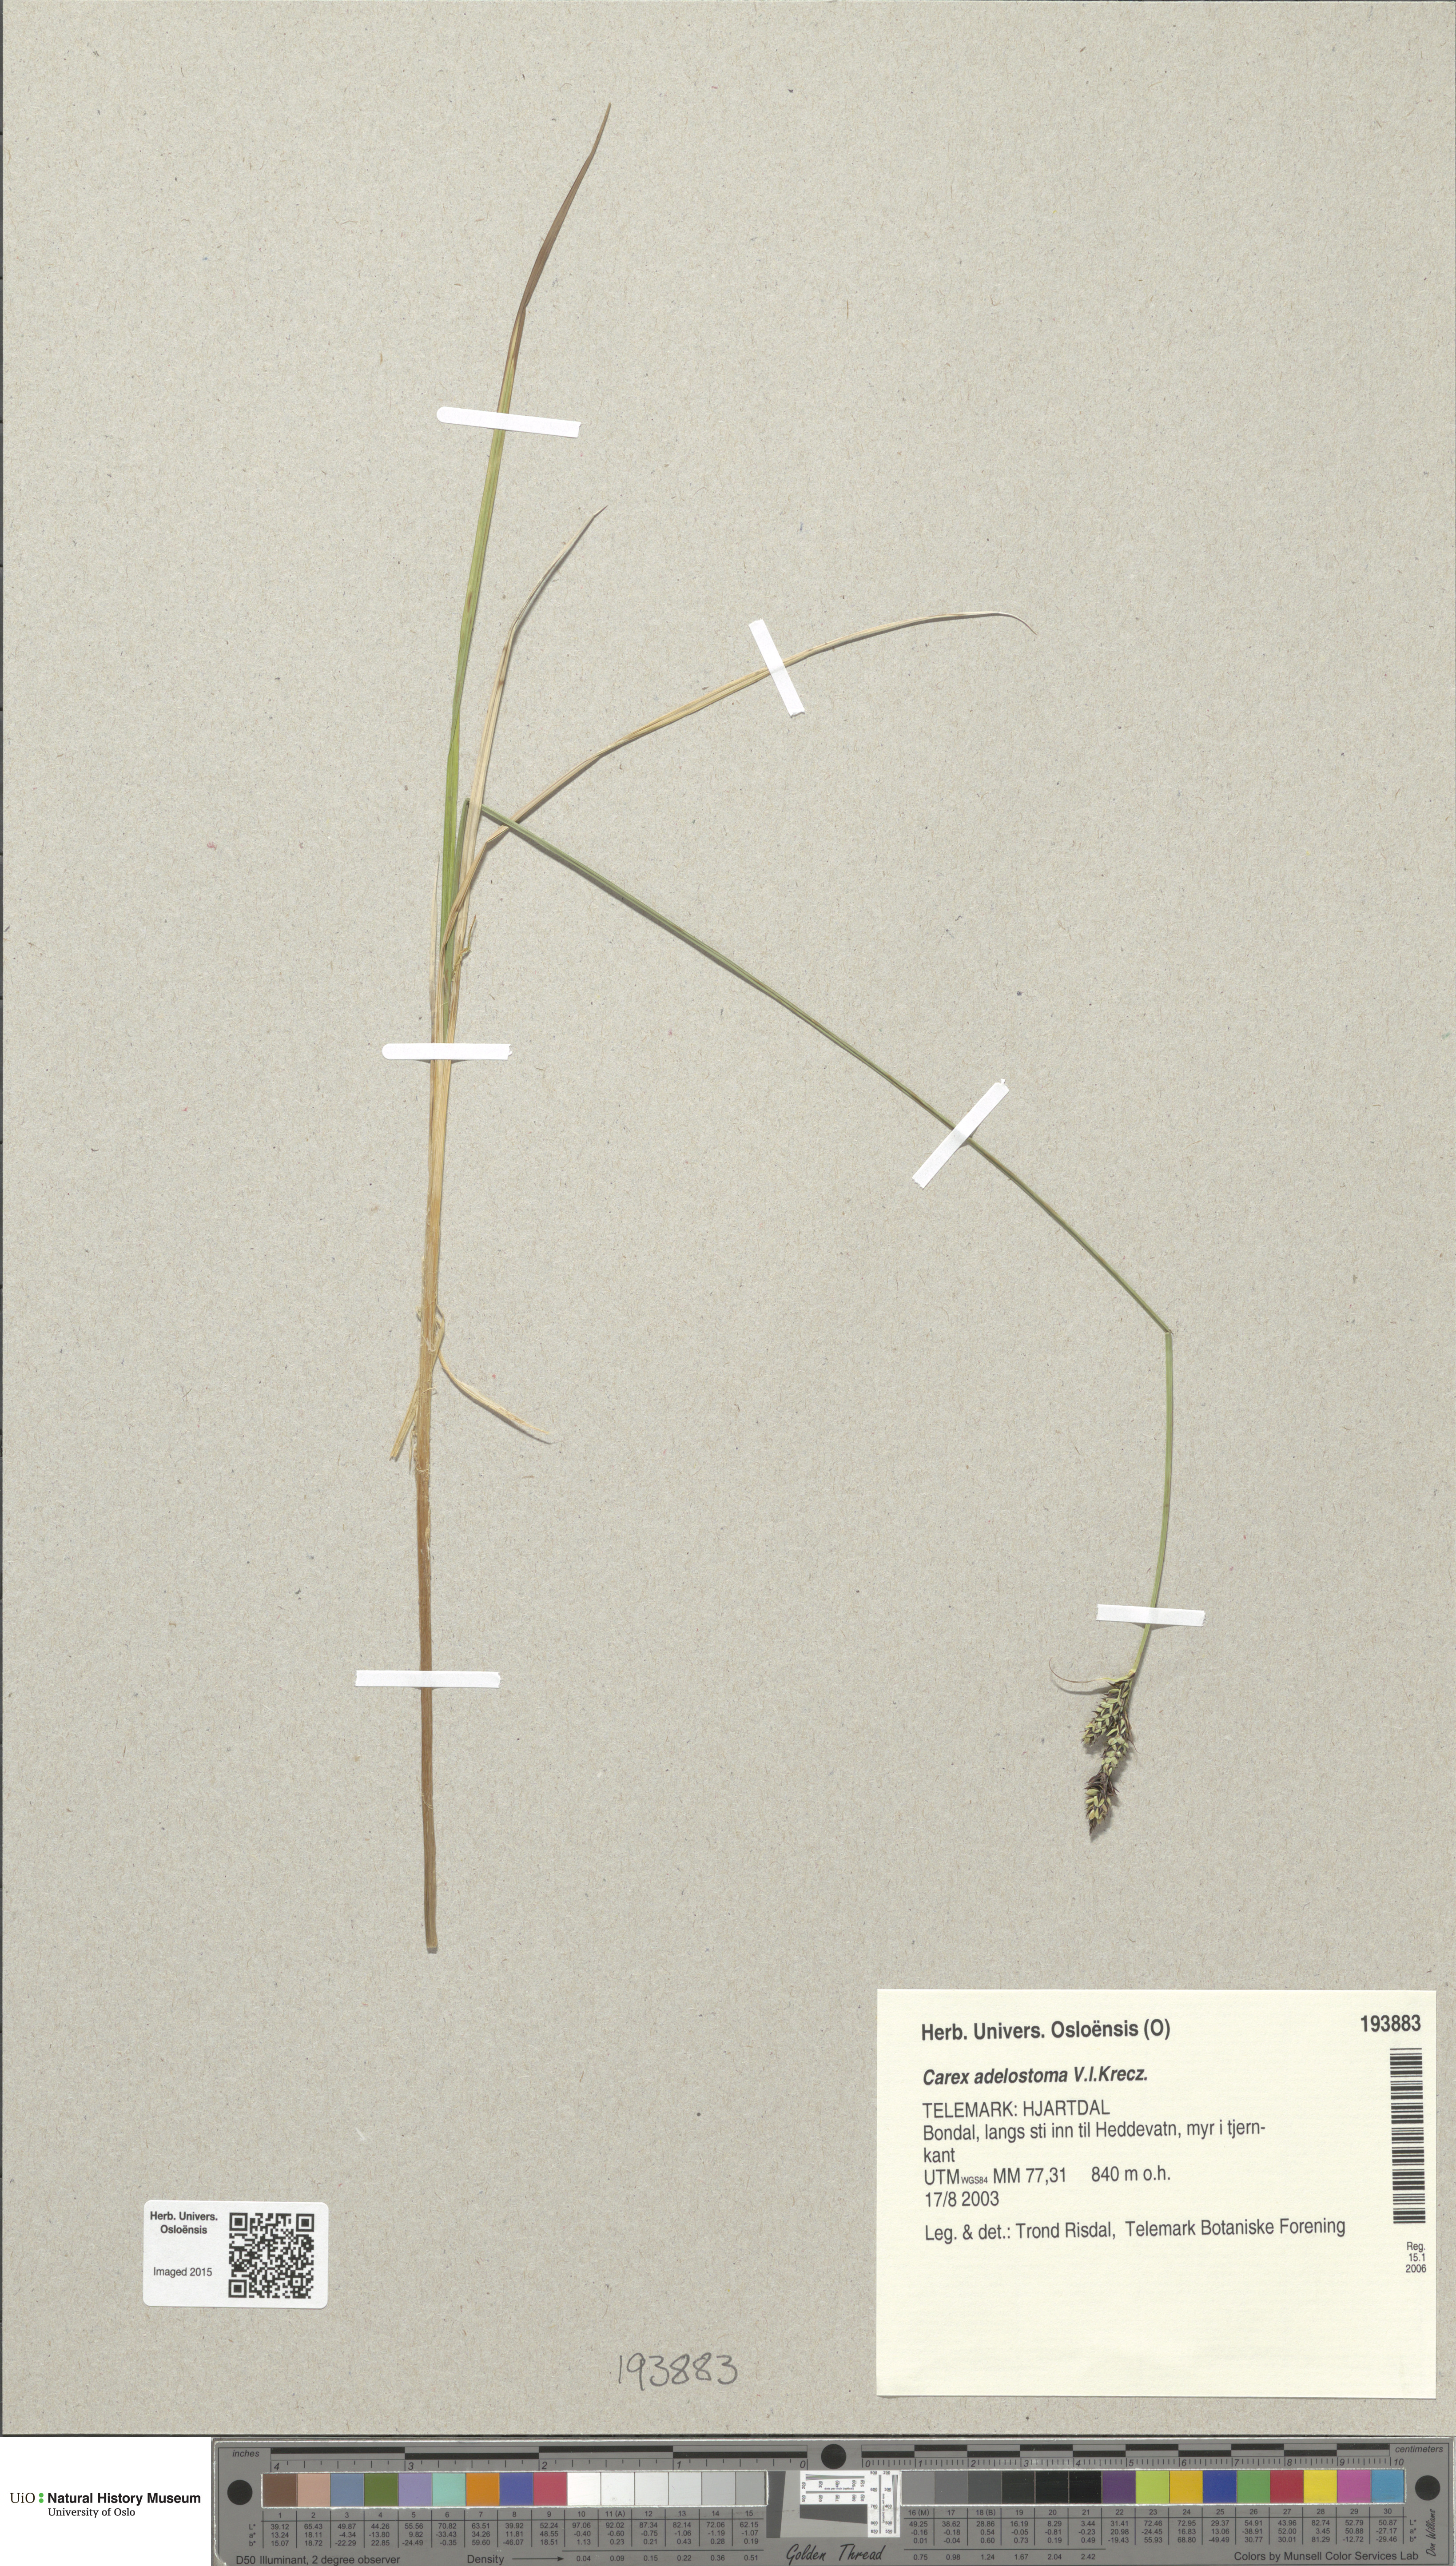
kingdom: Plantae
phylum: Tracheophyta
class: Liliopsida
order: Poales
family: Cyperaceae
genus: Carex
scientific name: Carex adelostoma
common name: Circumpolar sedge
